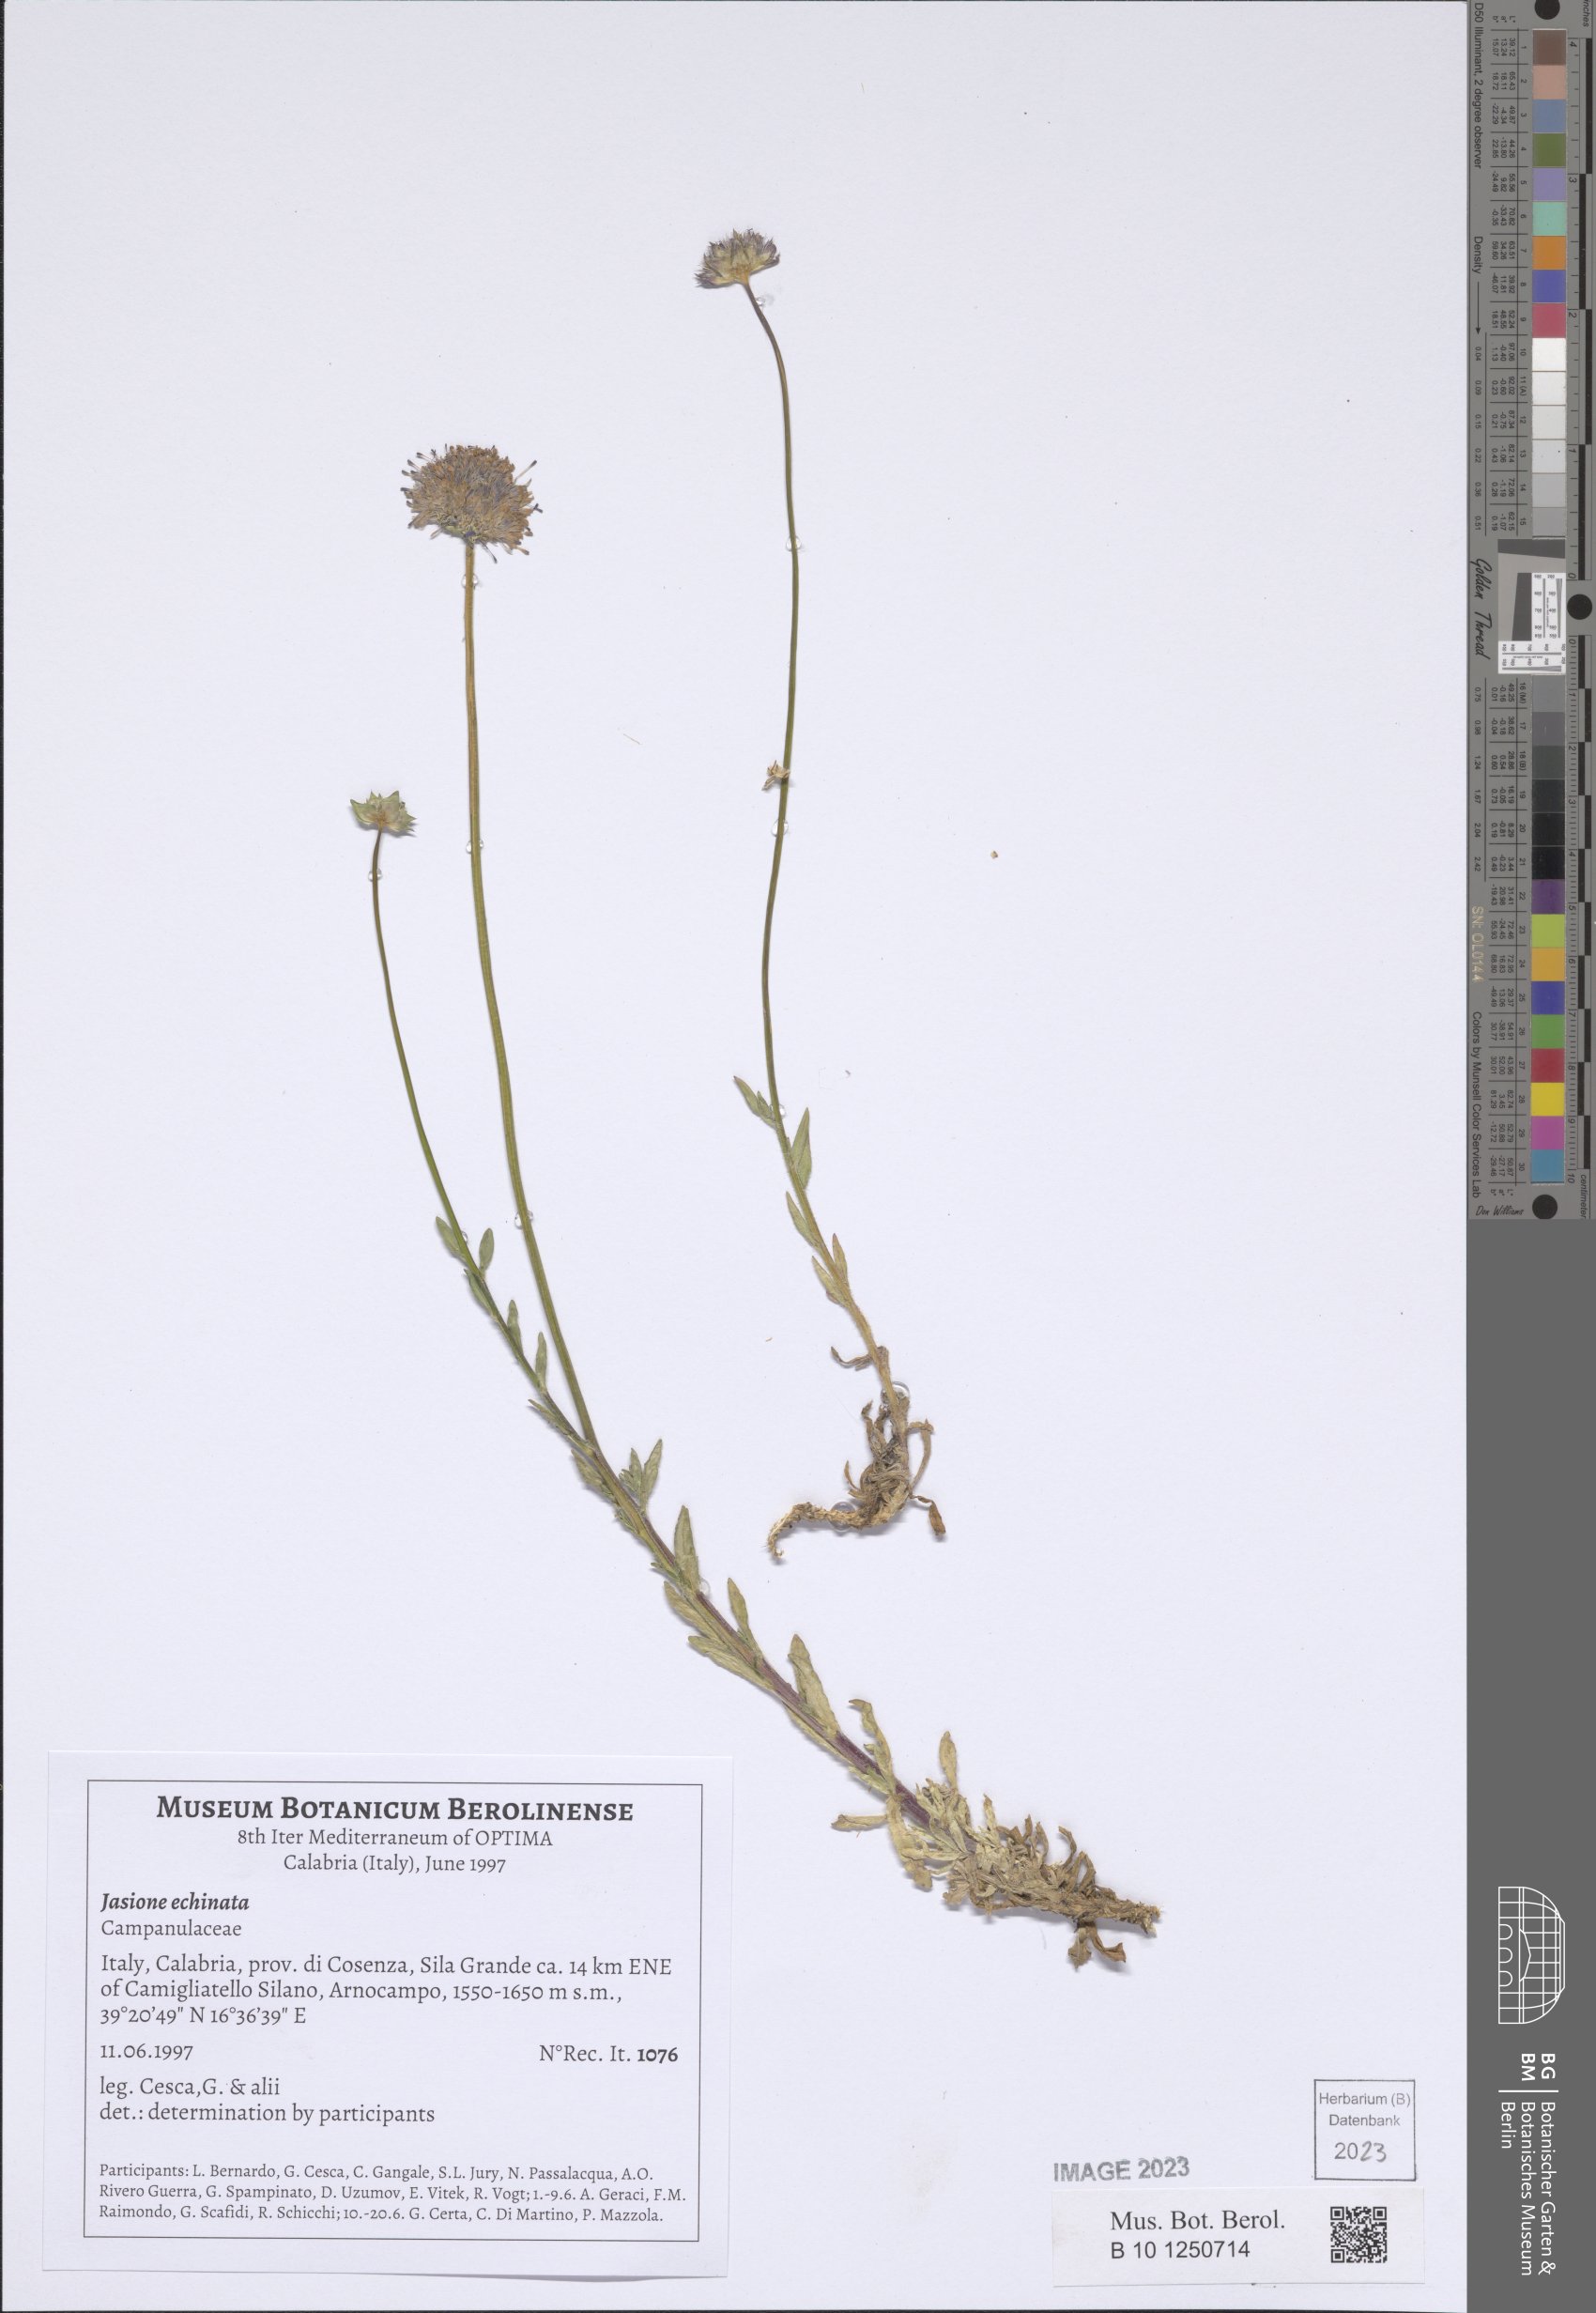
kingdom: Plantae
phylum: Tracheophyta
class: Magnoliopsida
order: Asterales
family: Campanulaceae
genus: Jasione
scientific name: Jasione montana
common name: Sheep's-bit
